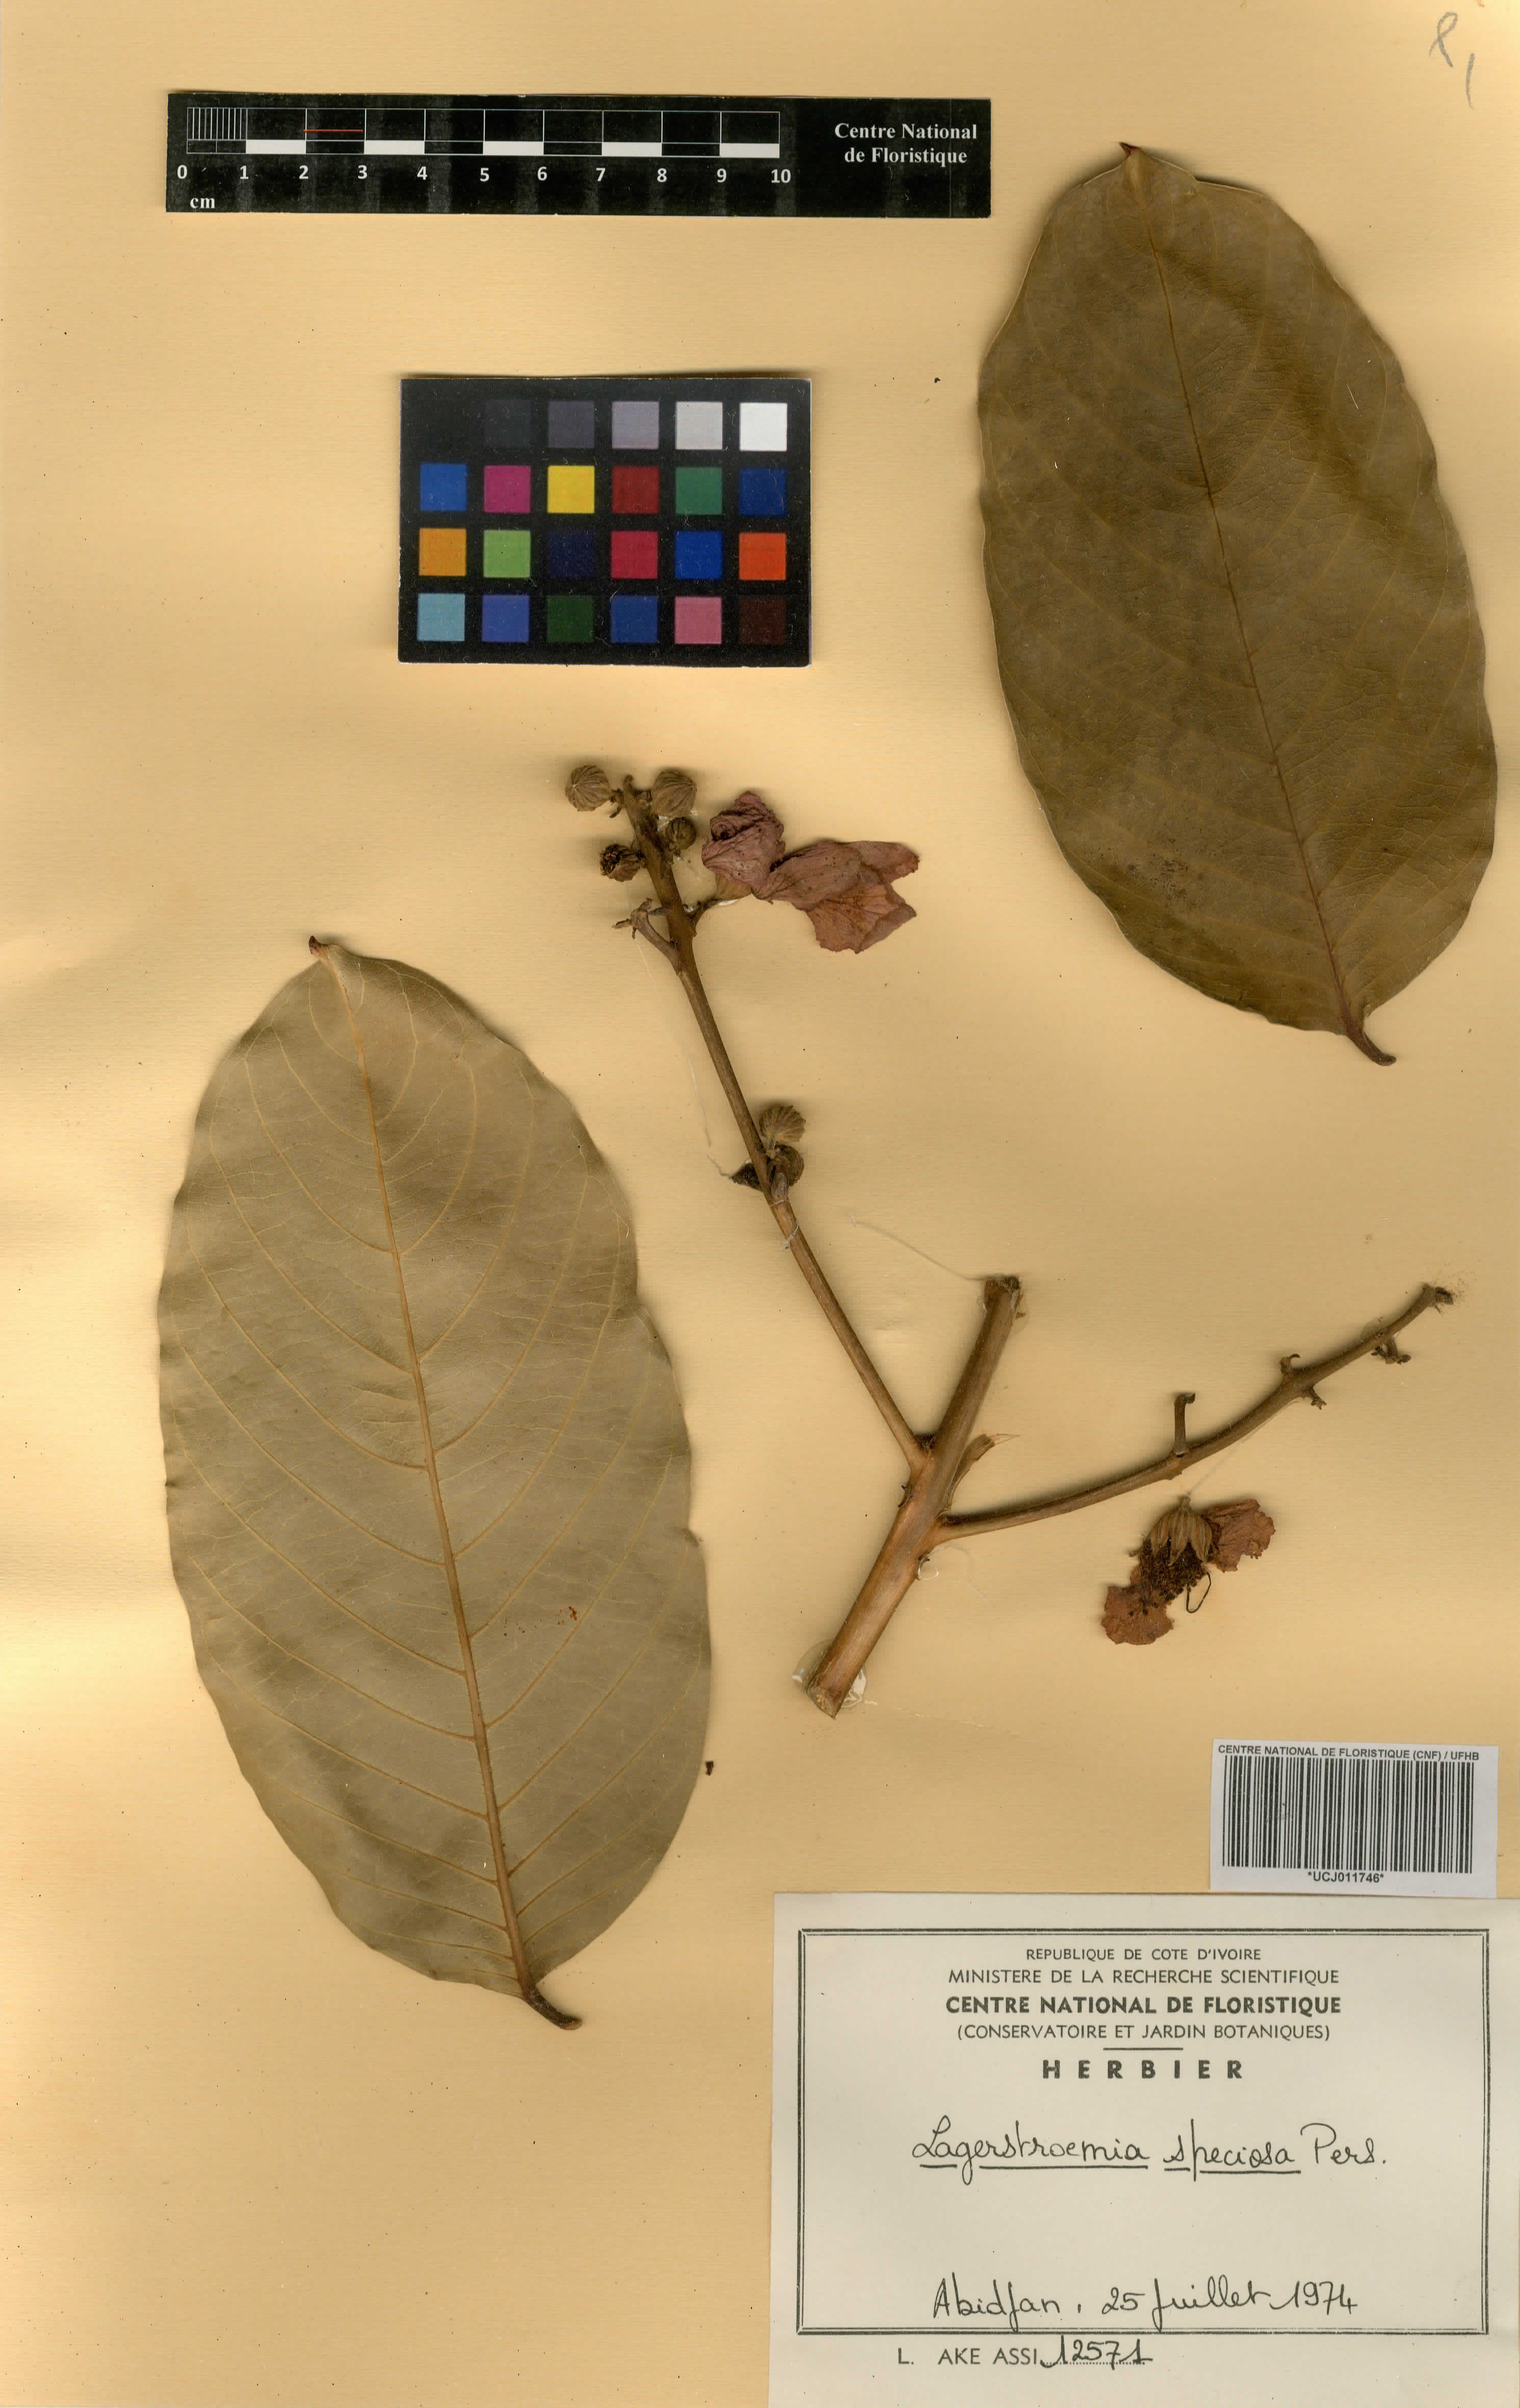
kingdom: Plantae
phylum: Tracheophyta
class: Magnoliopsida
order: Myrtales
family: Lythraceae
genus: Lagerstroemia
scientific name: Lagerstroemia speciosa
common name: Queen's crape-myrtle
